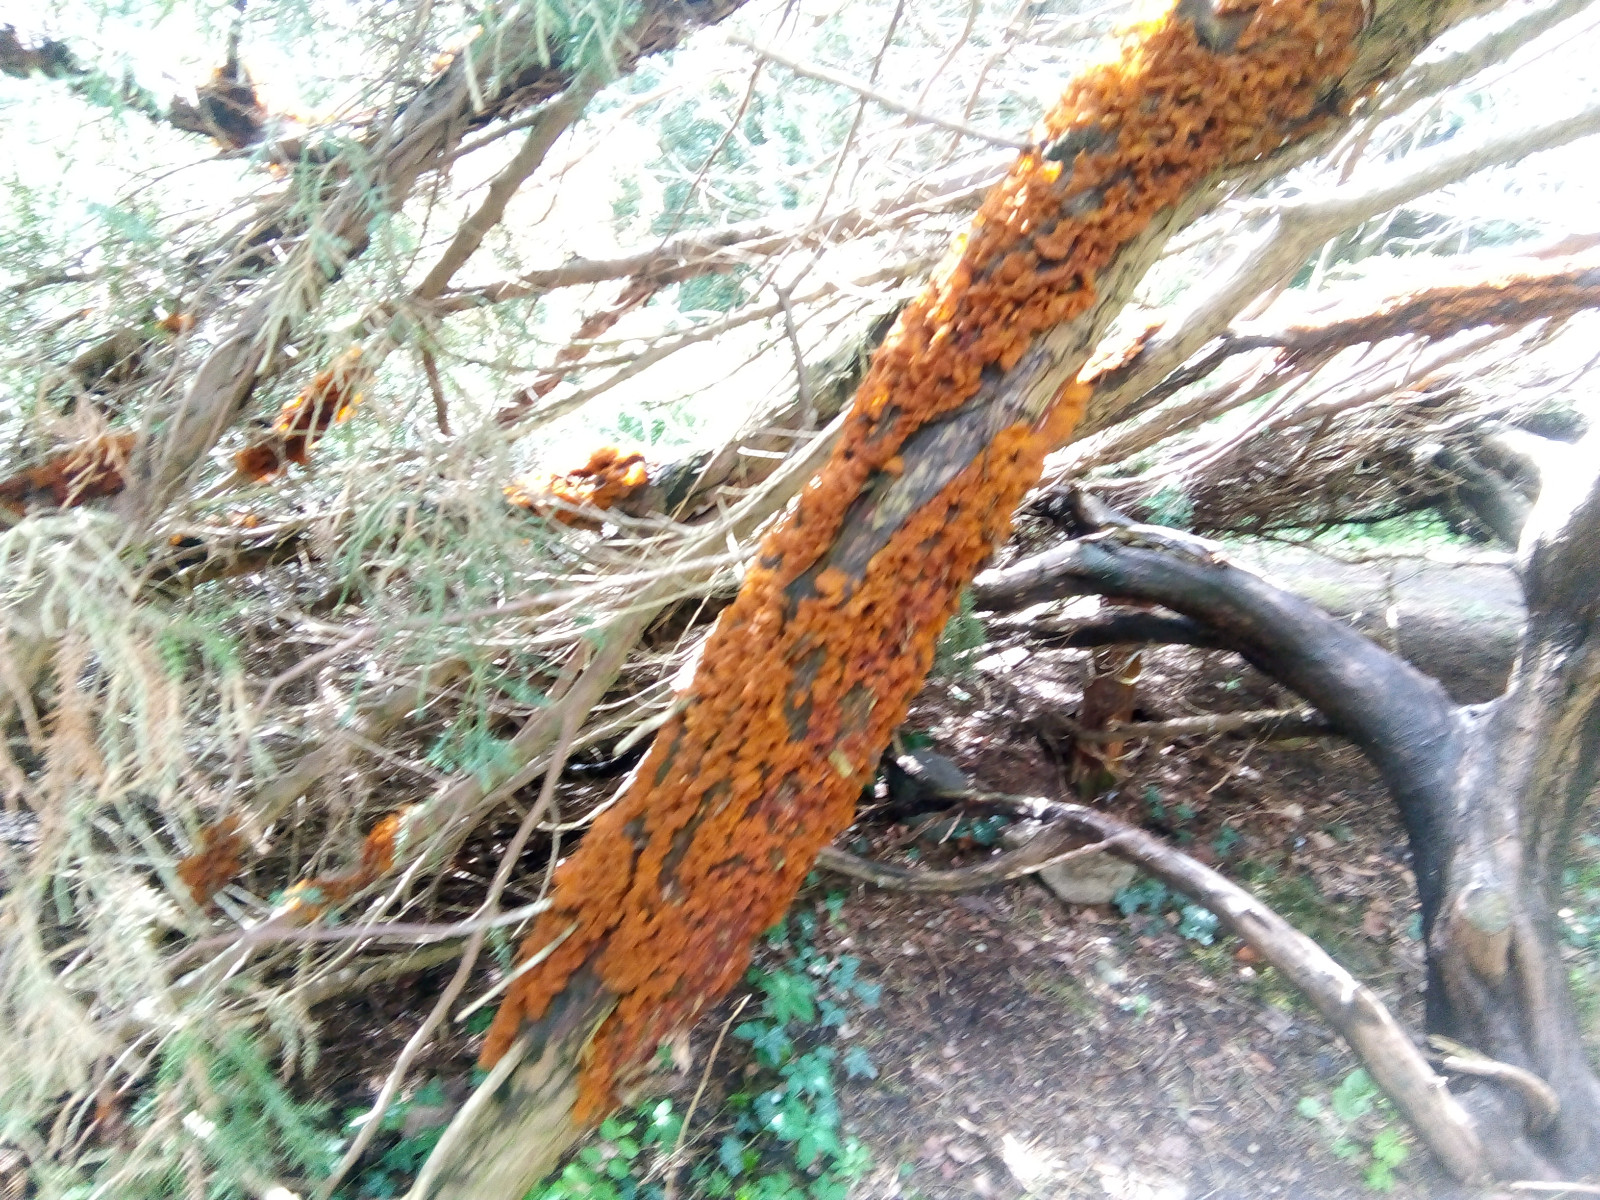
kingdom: Fungi
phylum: Basidiomycota
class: Pucciniomycetes
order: Pucciniales
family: Gymnosporangiaceae
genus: Gymnosporangium
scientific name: Gymnosporangium sabinae
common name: pæregitter-bævrerust
